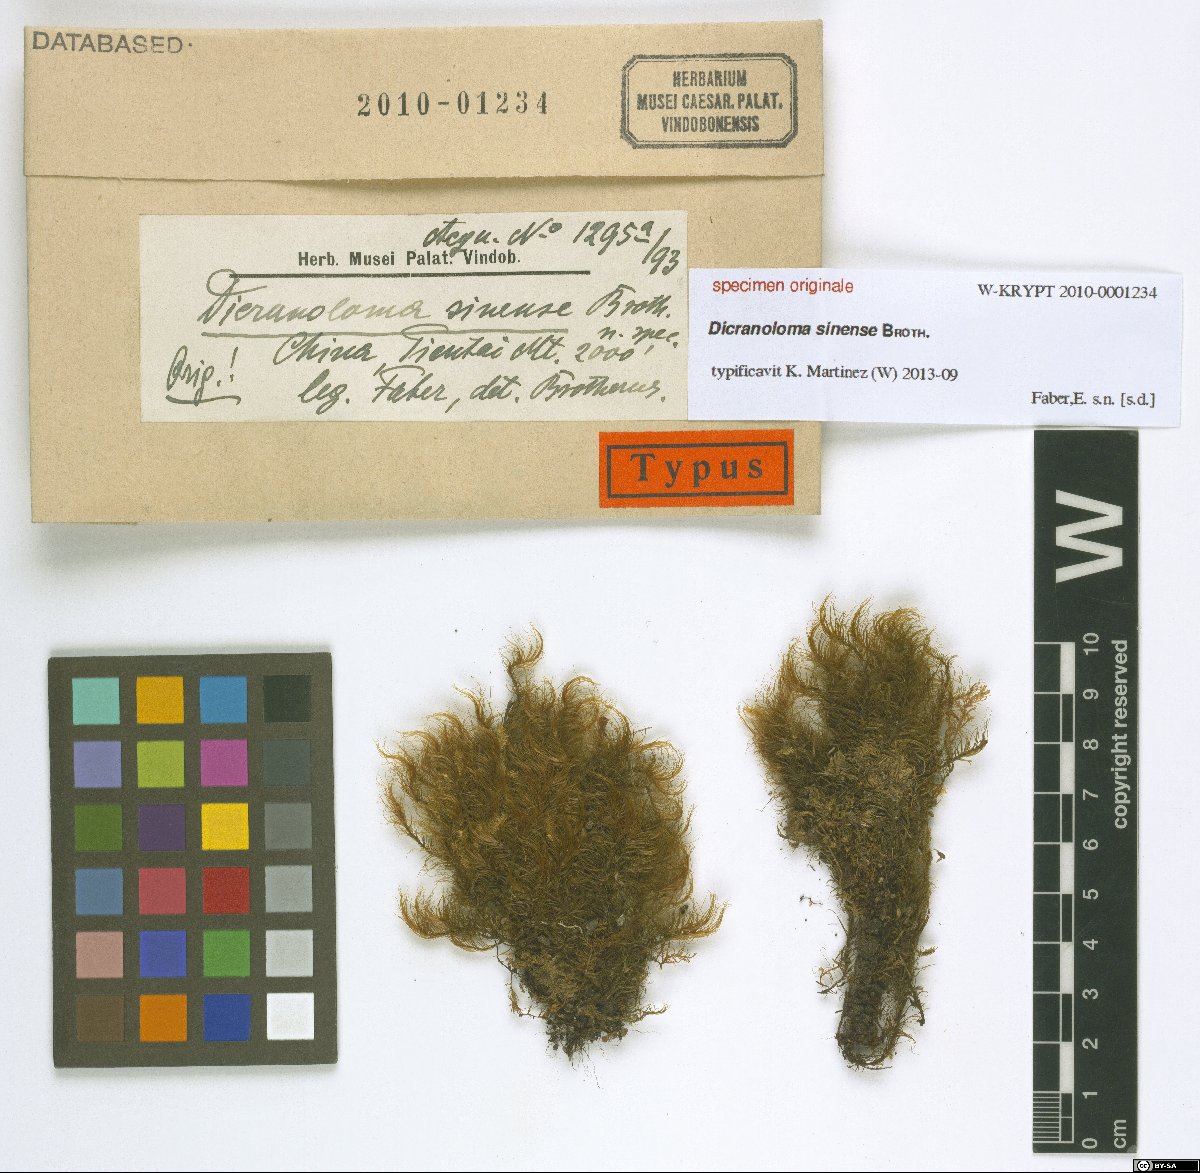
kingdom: Plantae
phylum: Bryophyta
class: Bryopsida
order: Dicranales
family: Dicranaceae
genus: Dicranoloma
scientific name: Dicranoloma
